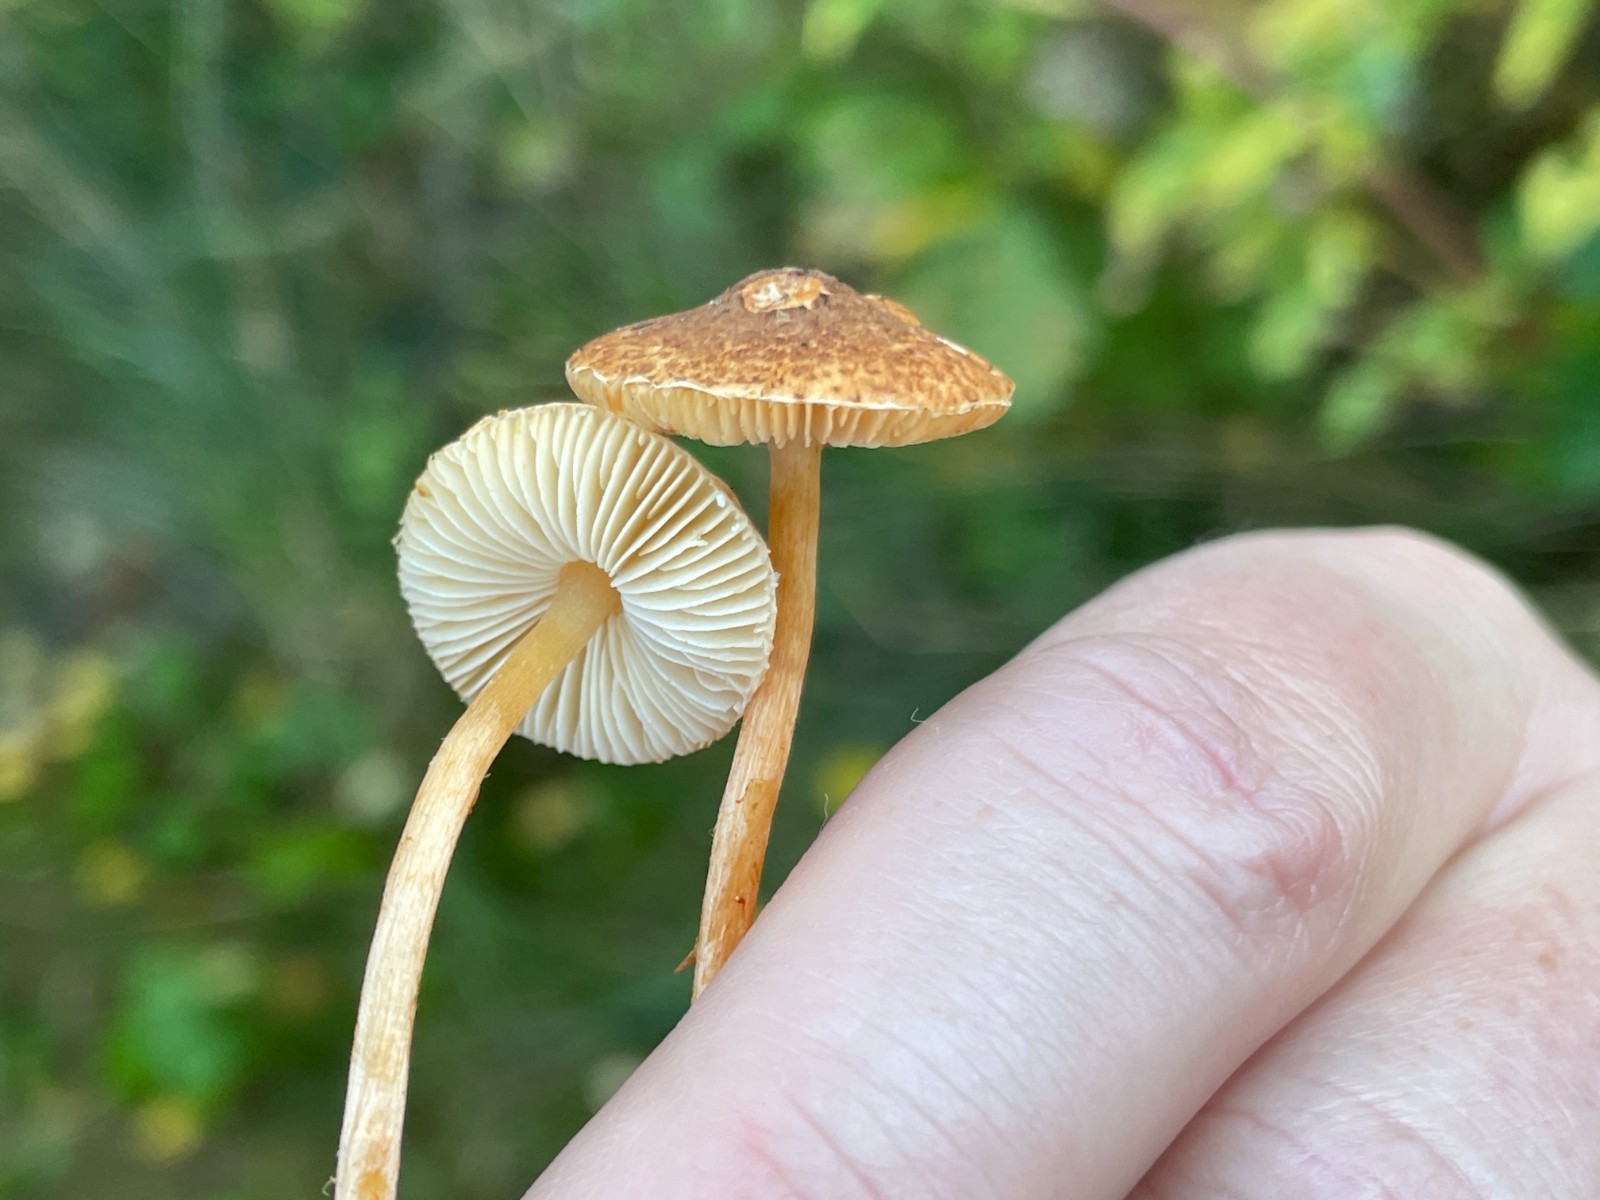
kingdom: Fungi
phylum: Basidiomycota
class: Agaricomycetes
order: Agaricales
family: Agaricaceae
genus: Lepiota
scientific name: Lepiota castanea
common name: kastaniebrun parasolhat
